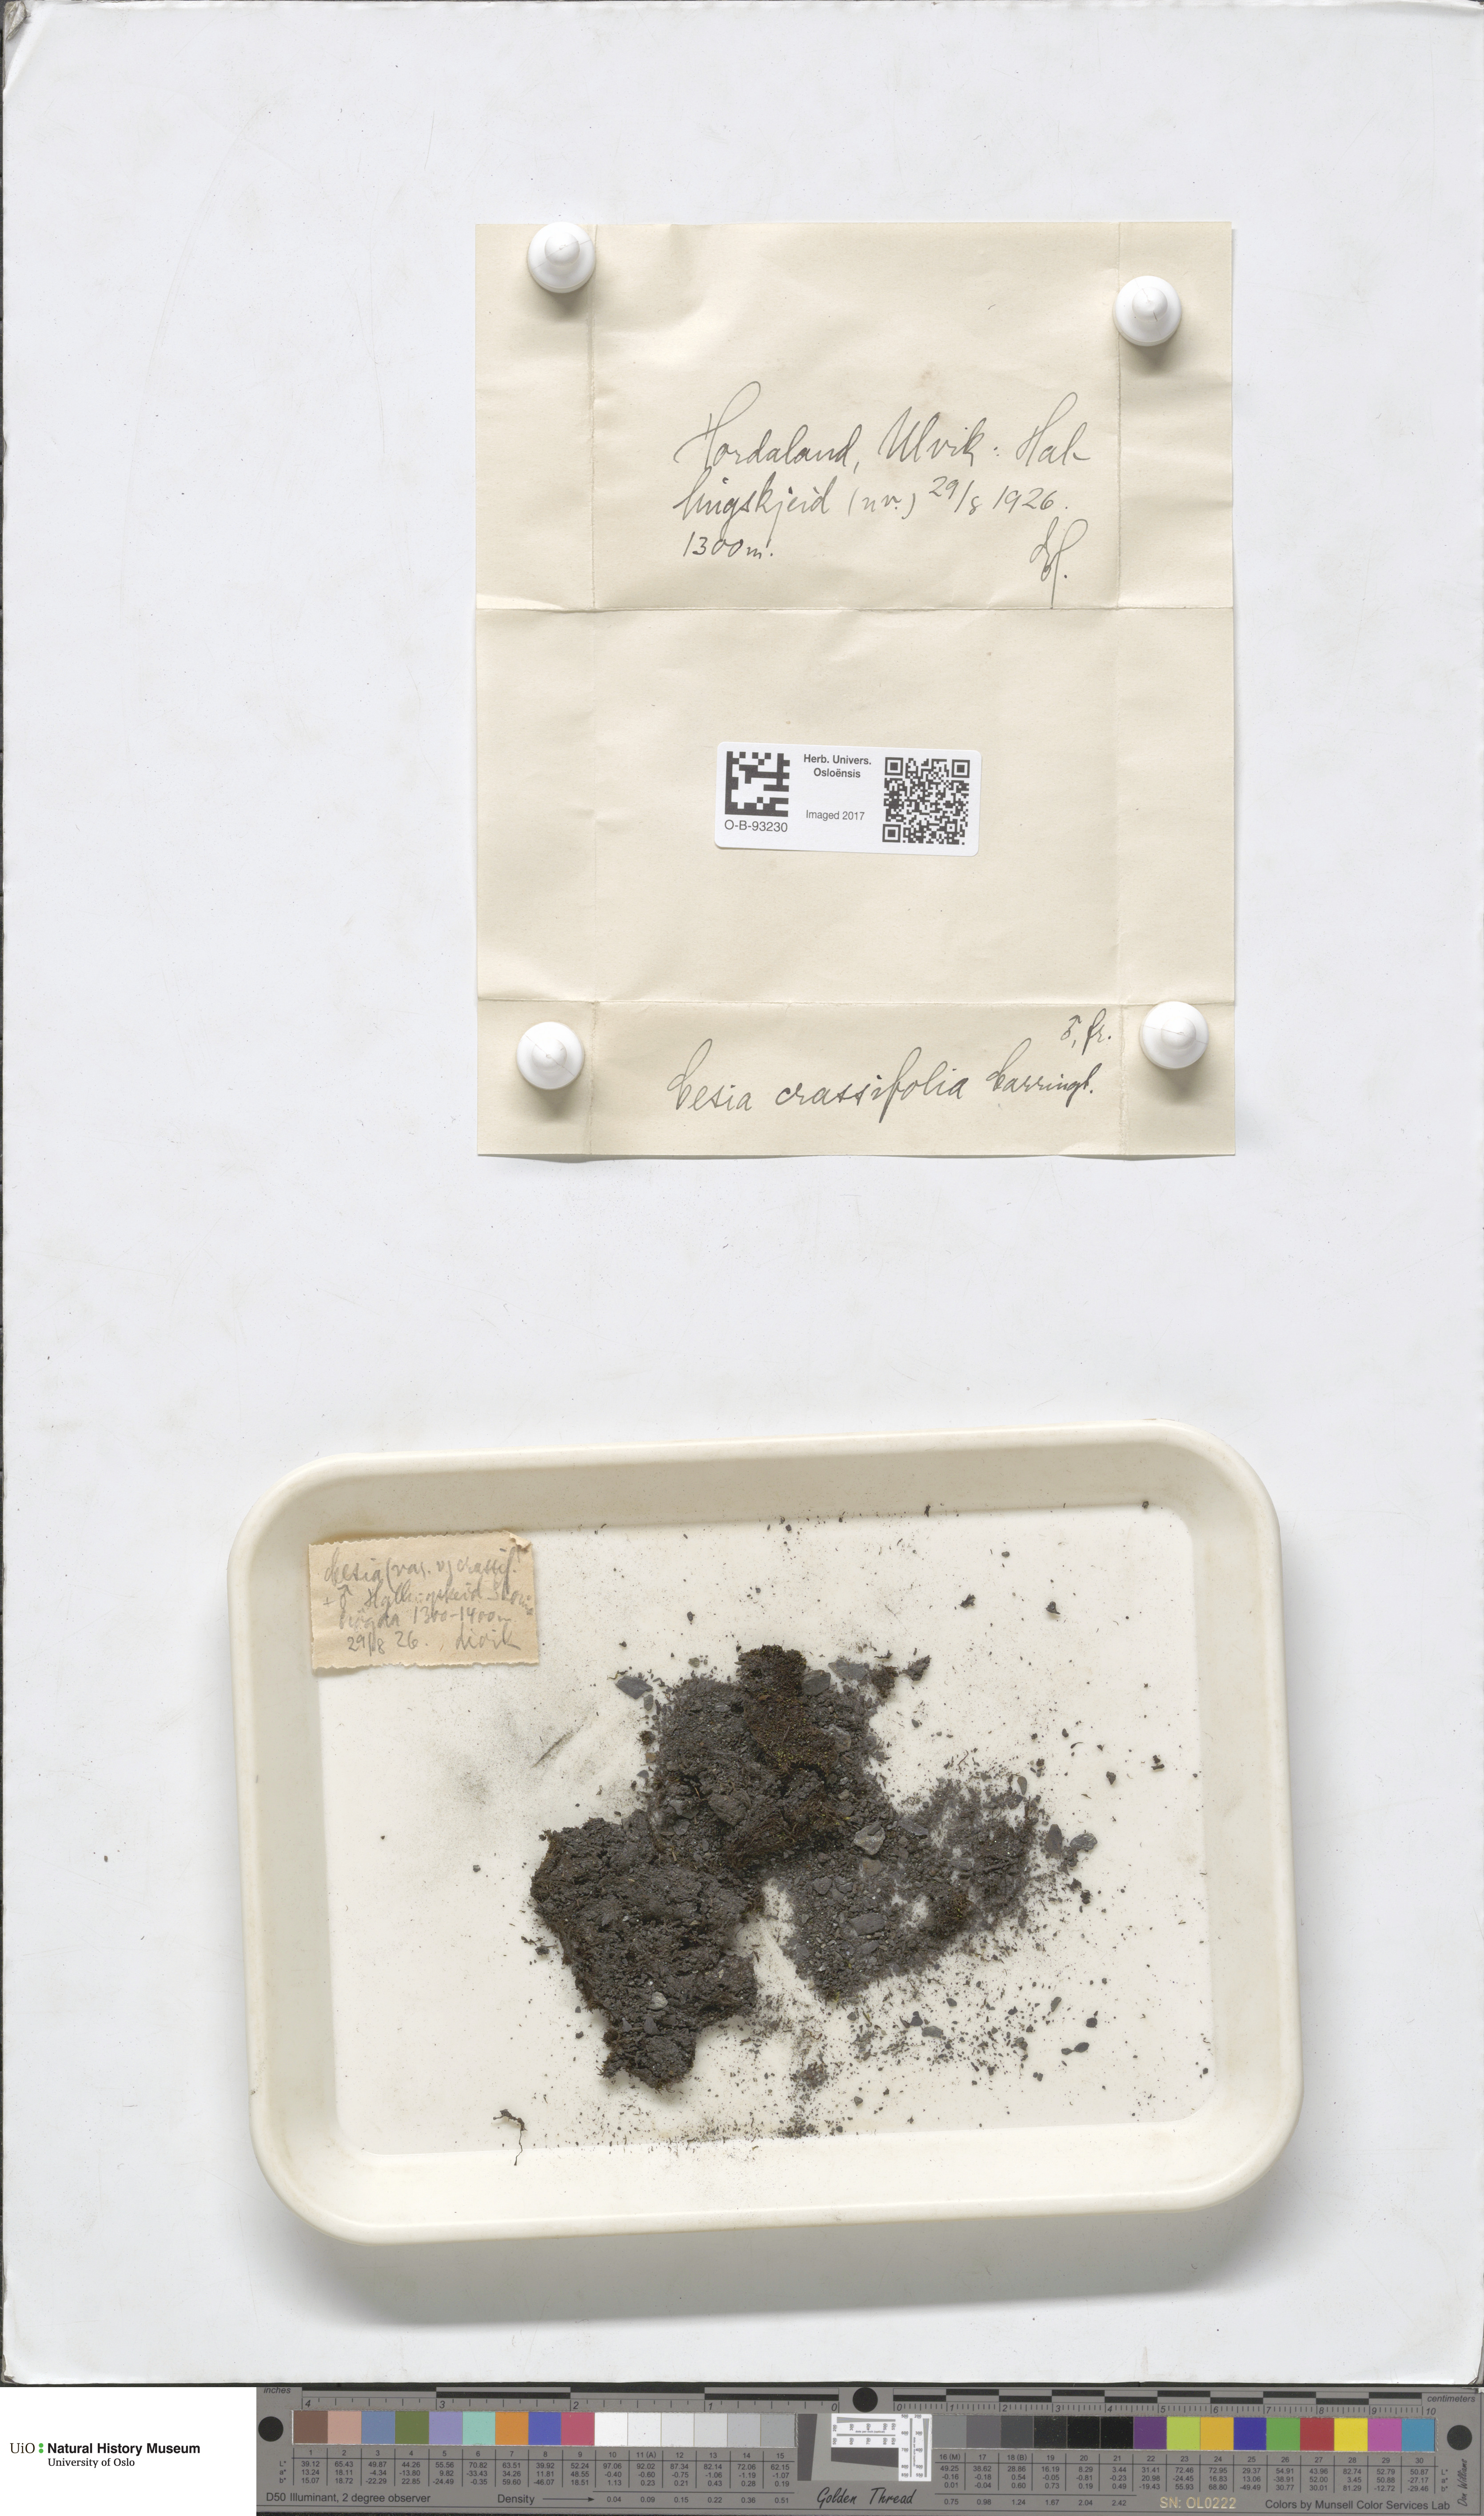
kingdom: Plantae
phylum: Marchantiophyta
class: Jungermanniopsida
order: Jungermanniales
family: Gymnomitriaceae
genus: Gymnomitrion
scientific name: Gymnomitrion brevissimum
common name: Snow rustwort
